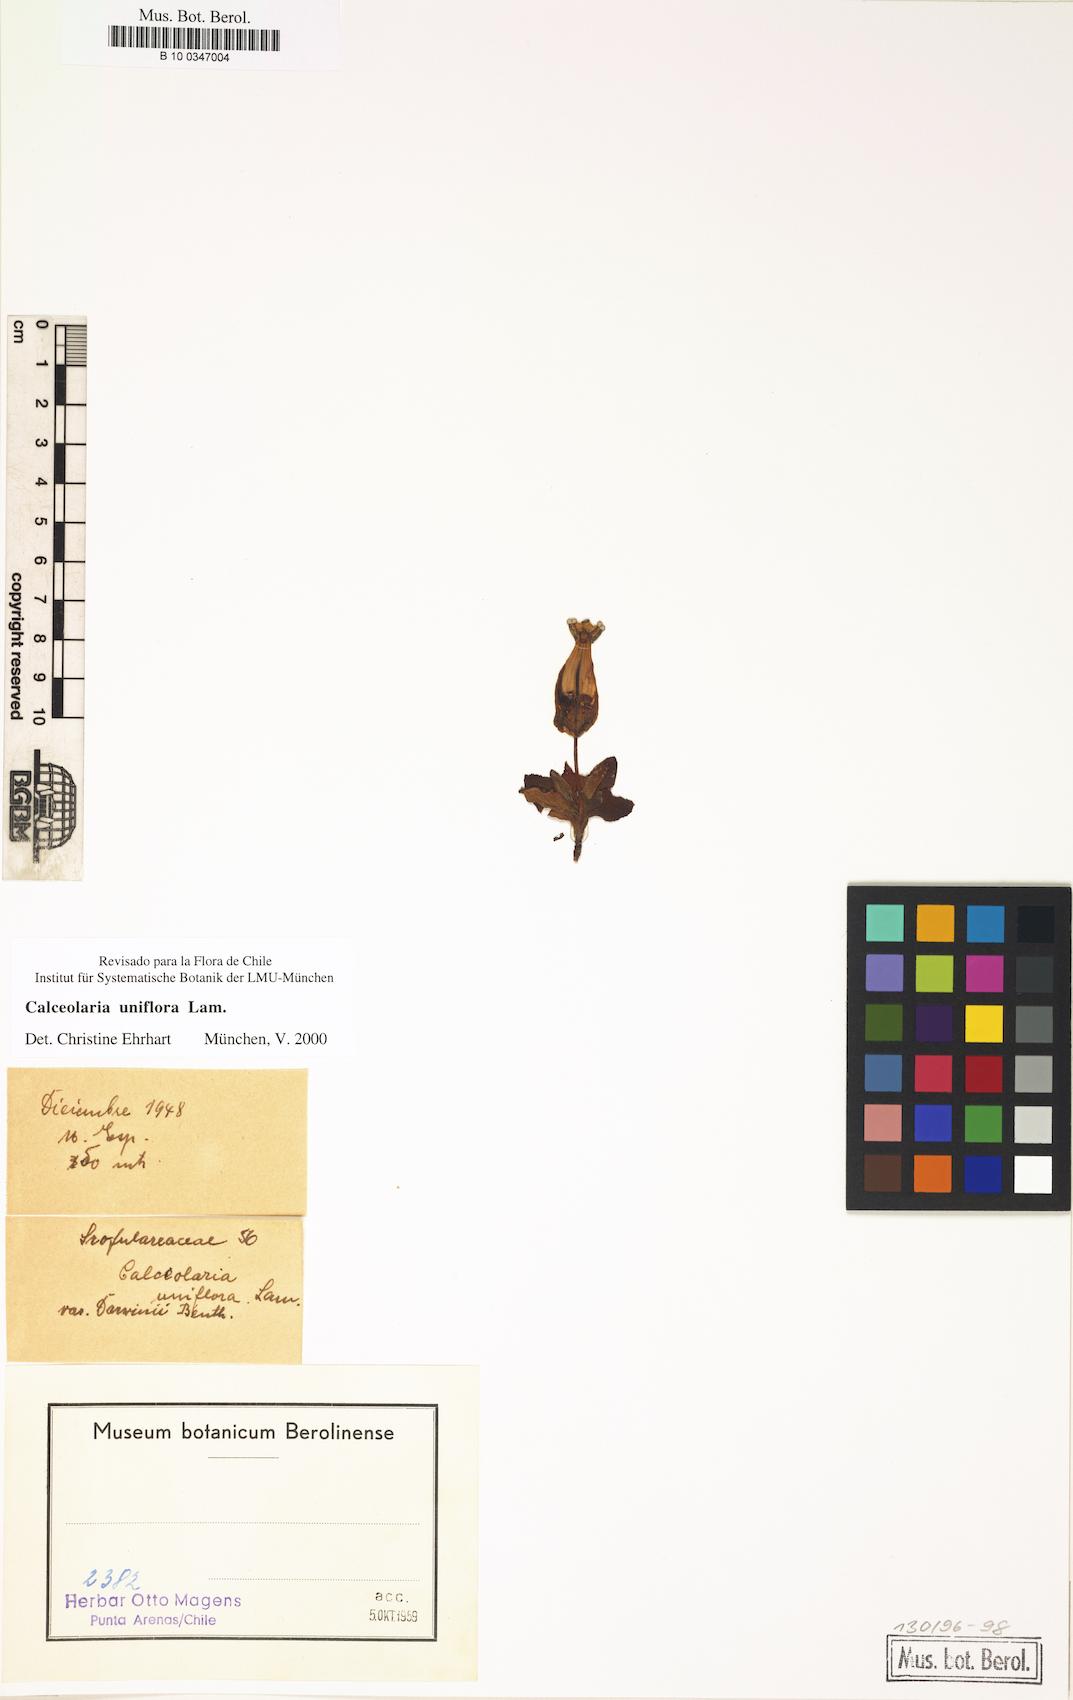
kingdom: Plantae
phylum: Tracheophyta
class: Magnoliopsida
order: Lamiales
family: Calceolariaceae
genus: Calceolaria
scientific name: Calceolaria uniflora
